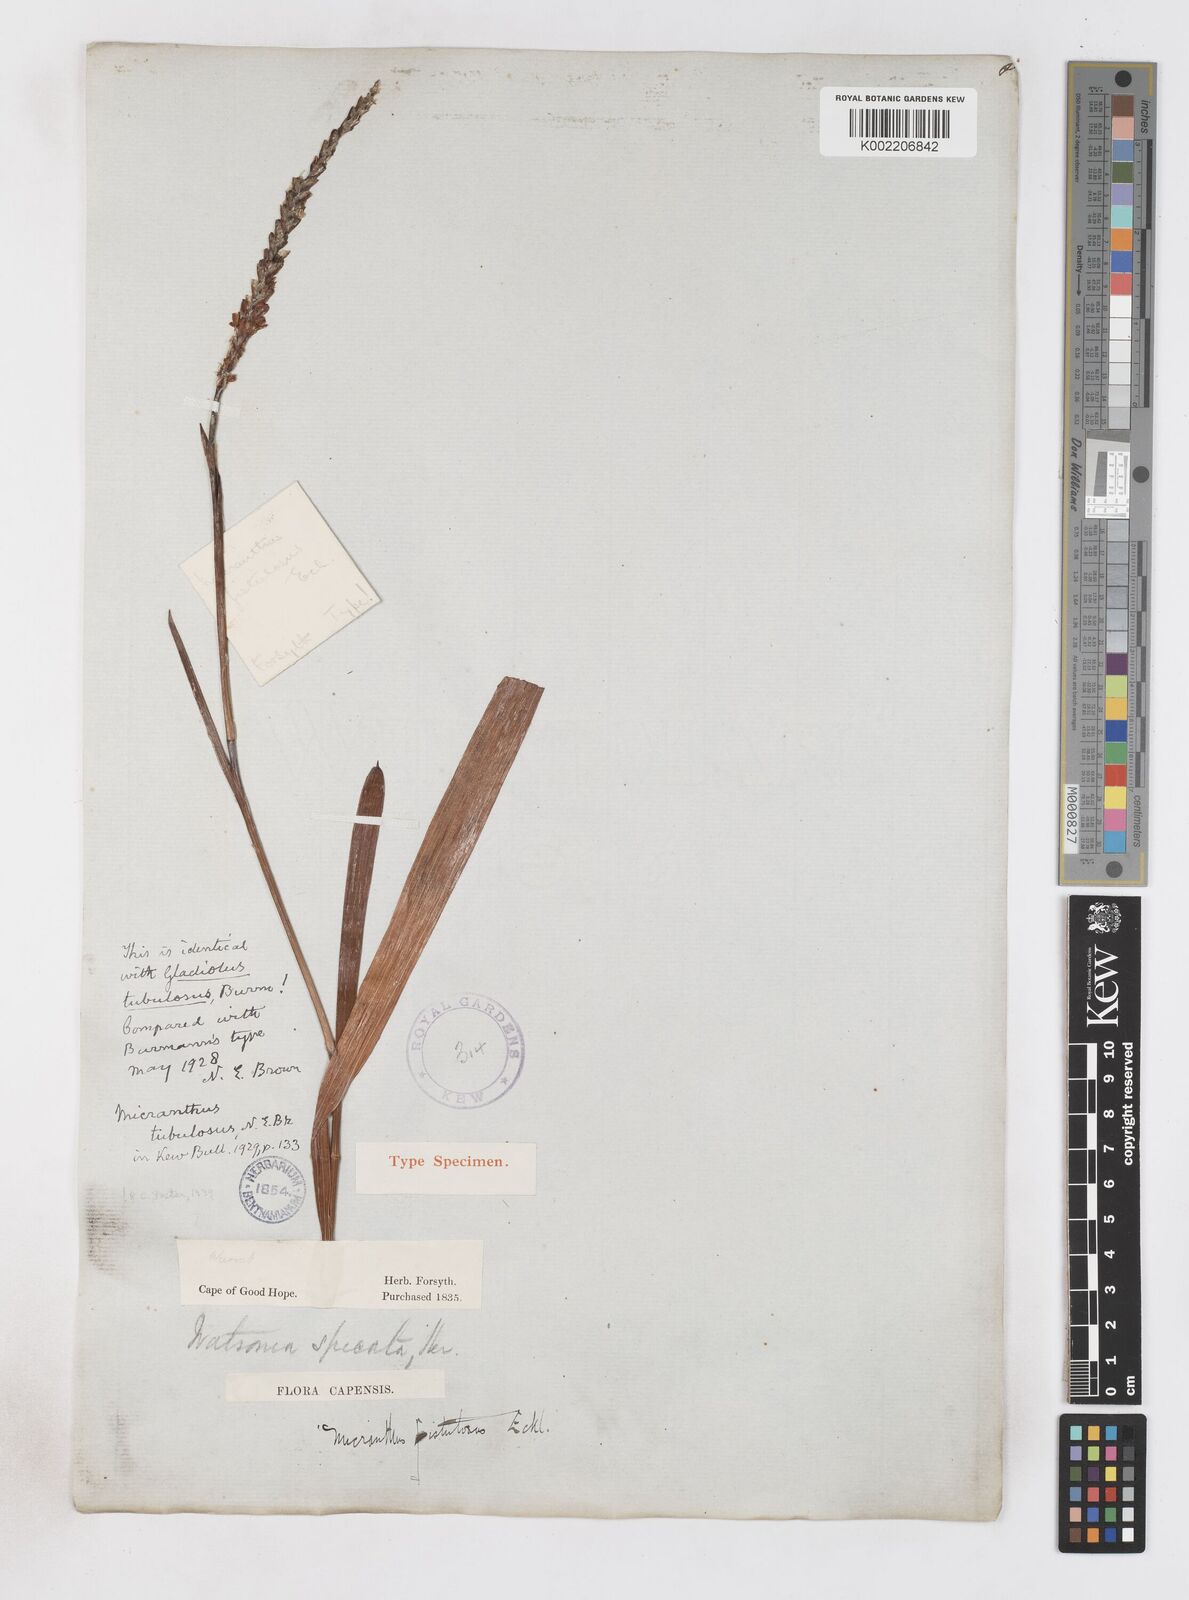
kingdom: Plantae
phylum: Tracheophyta
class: Liliopsida
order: Asparagales
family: Iridaceae
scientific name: Iridaceae
